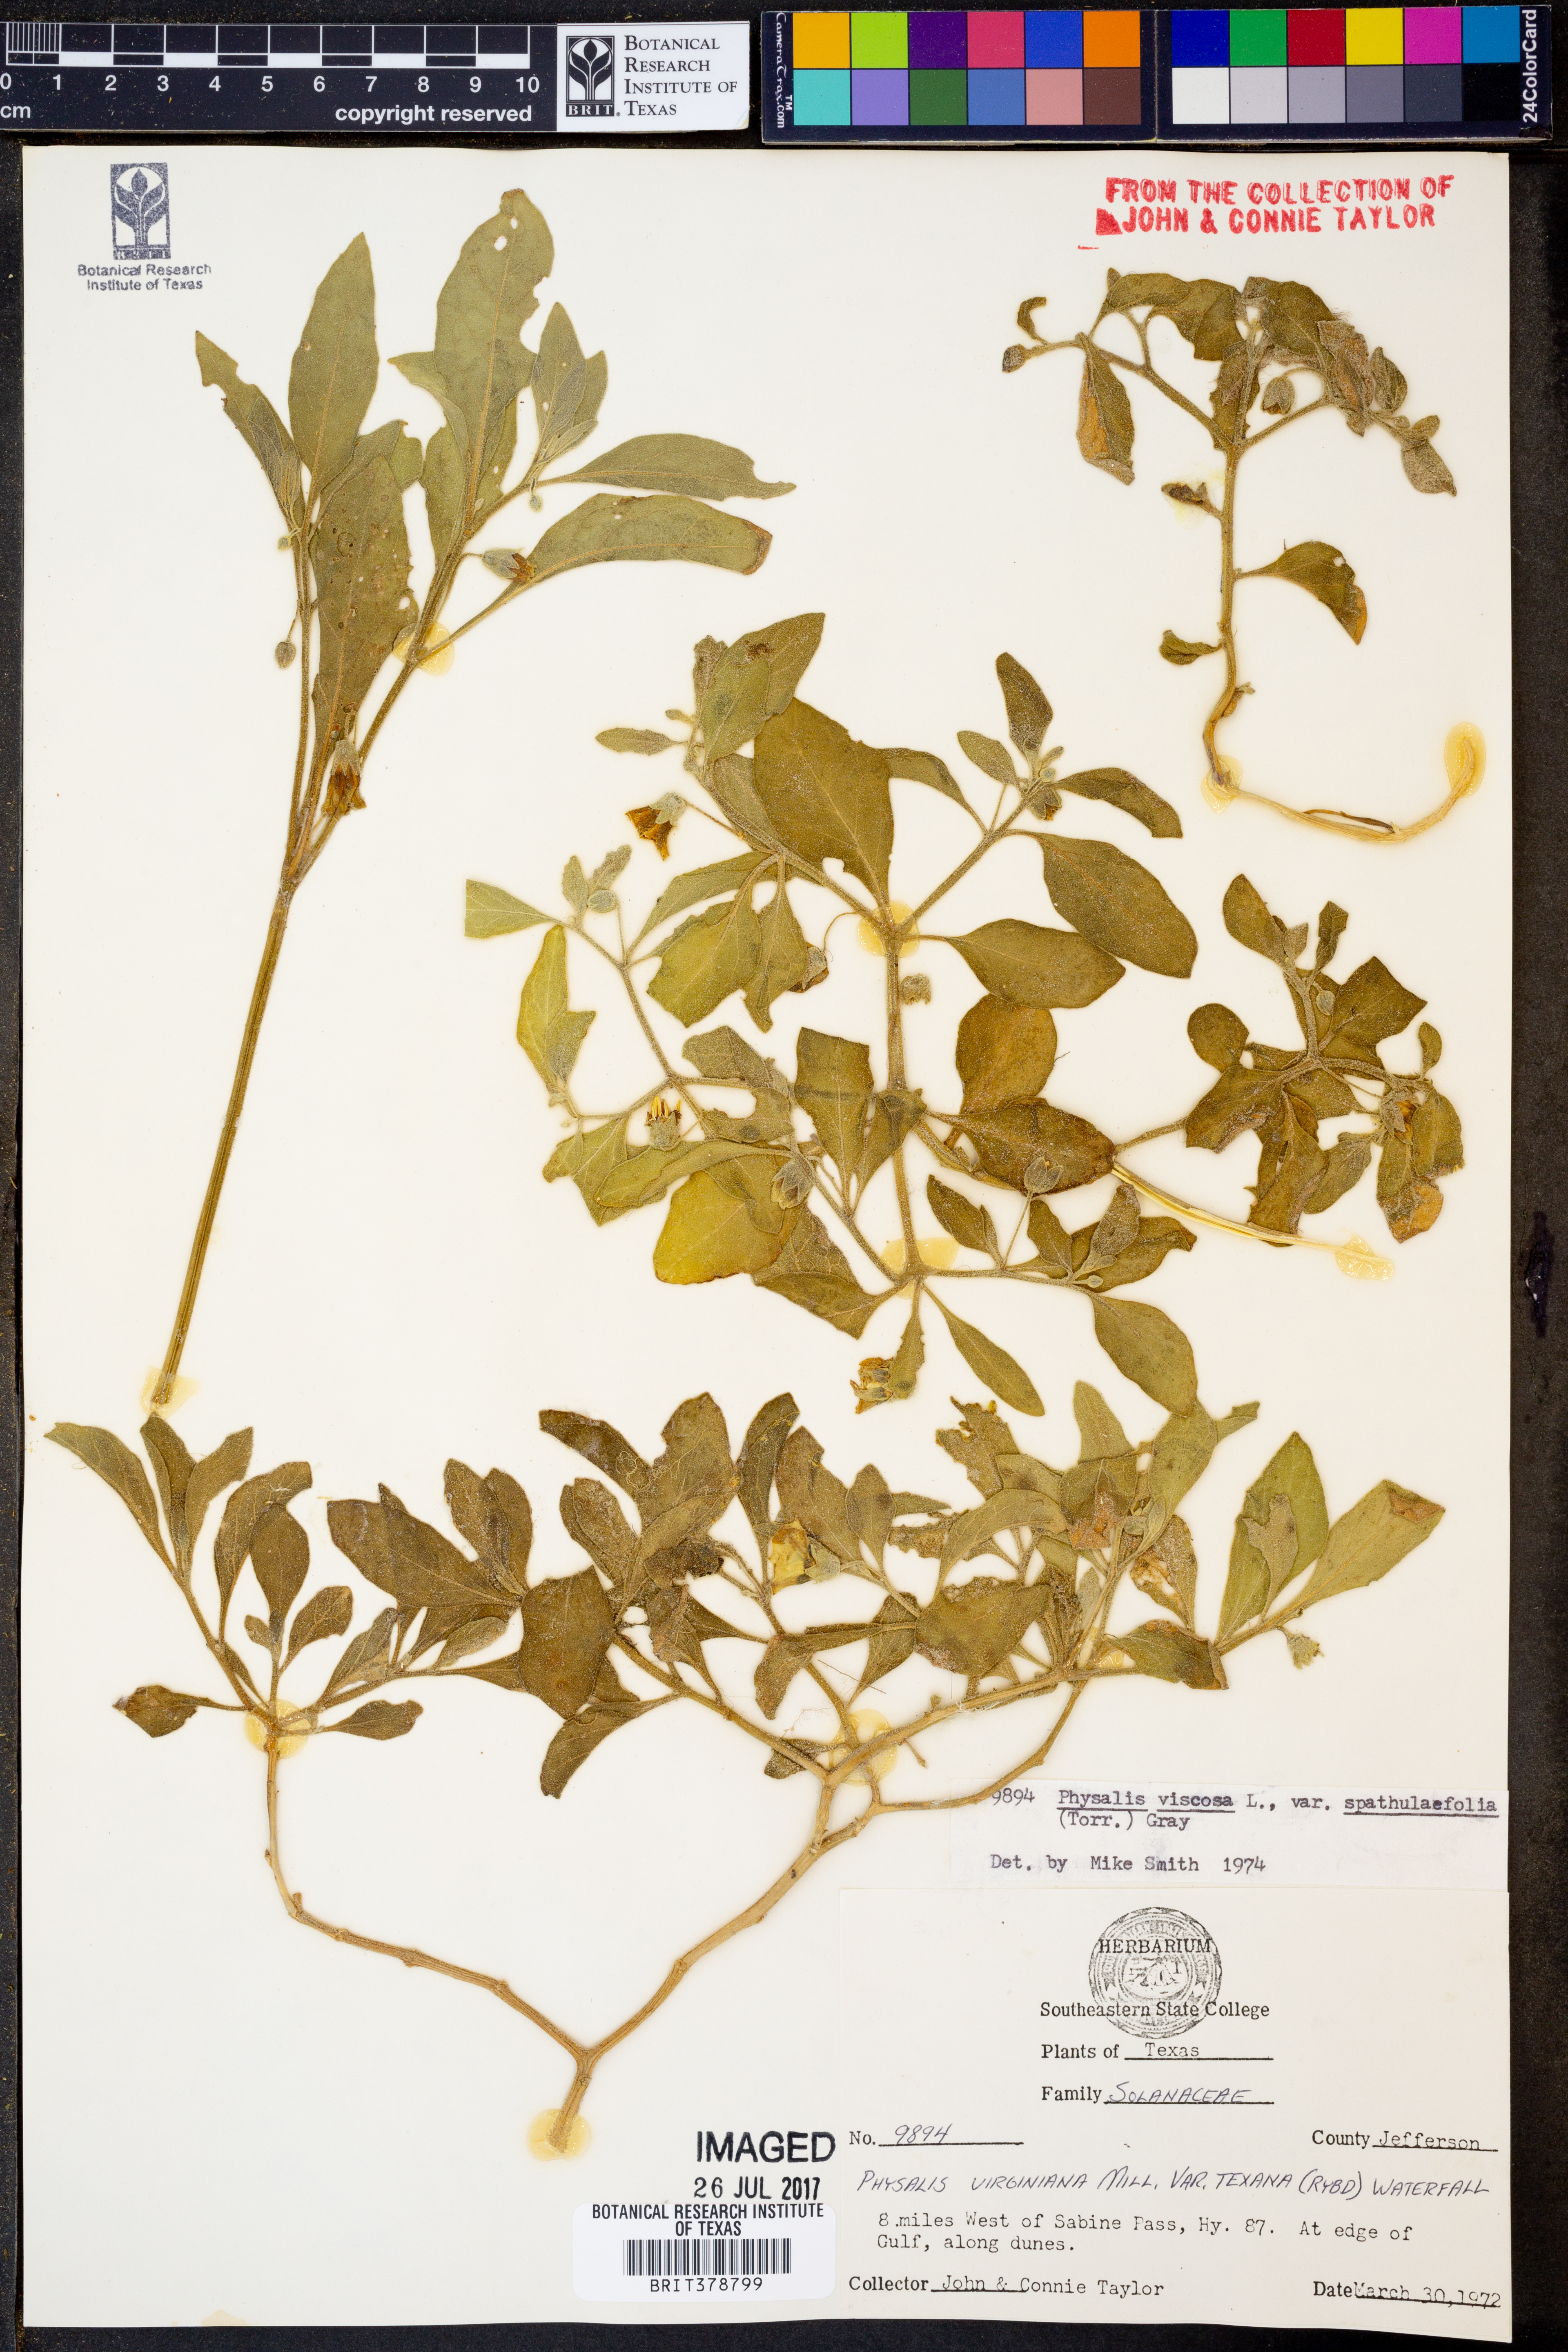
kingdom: Plantae
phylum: Tracheophyta
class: Magnoliopsida
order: Solanales
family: Solanaceae
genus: Physalis
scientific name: Physalis cinerascens
